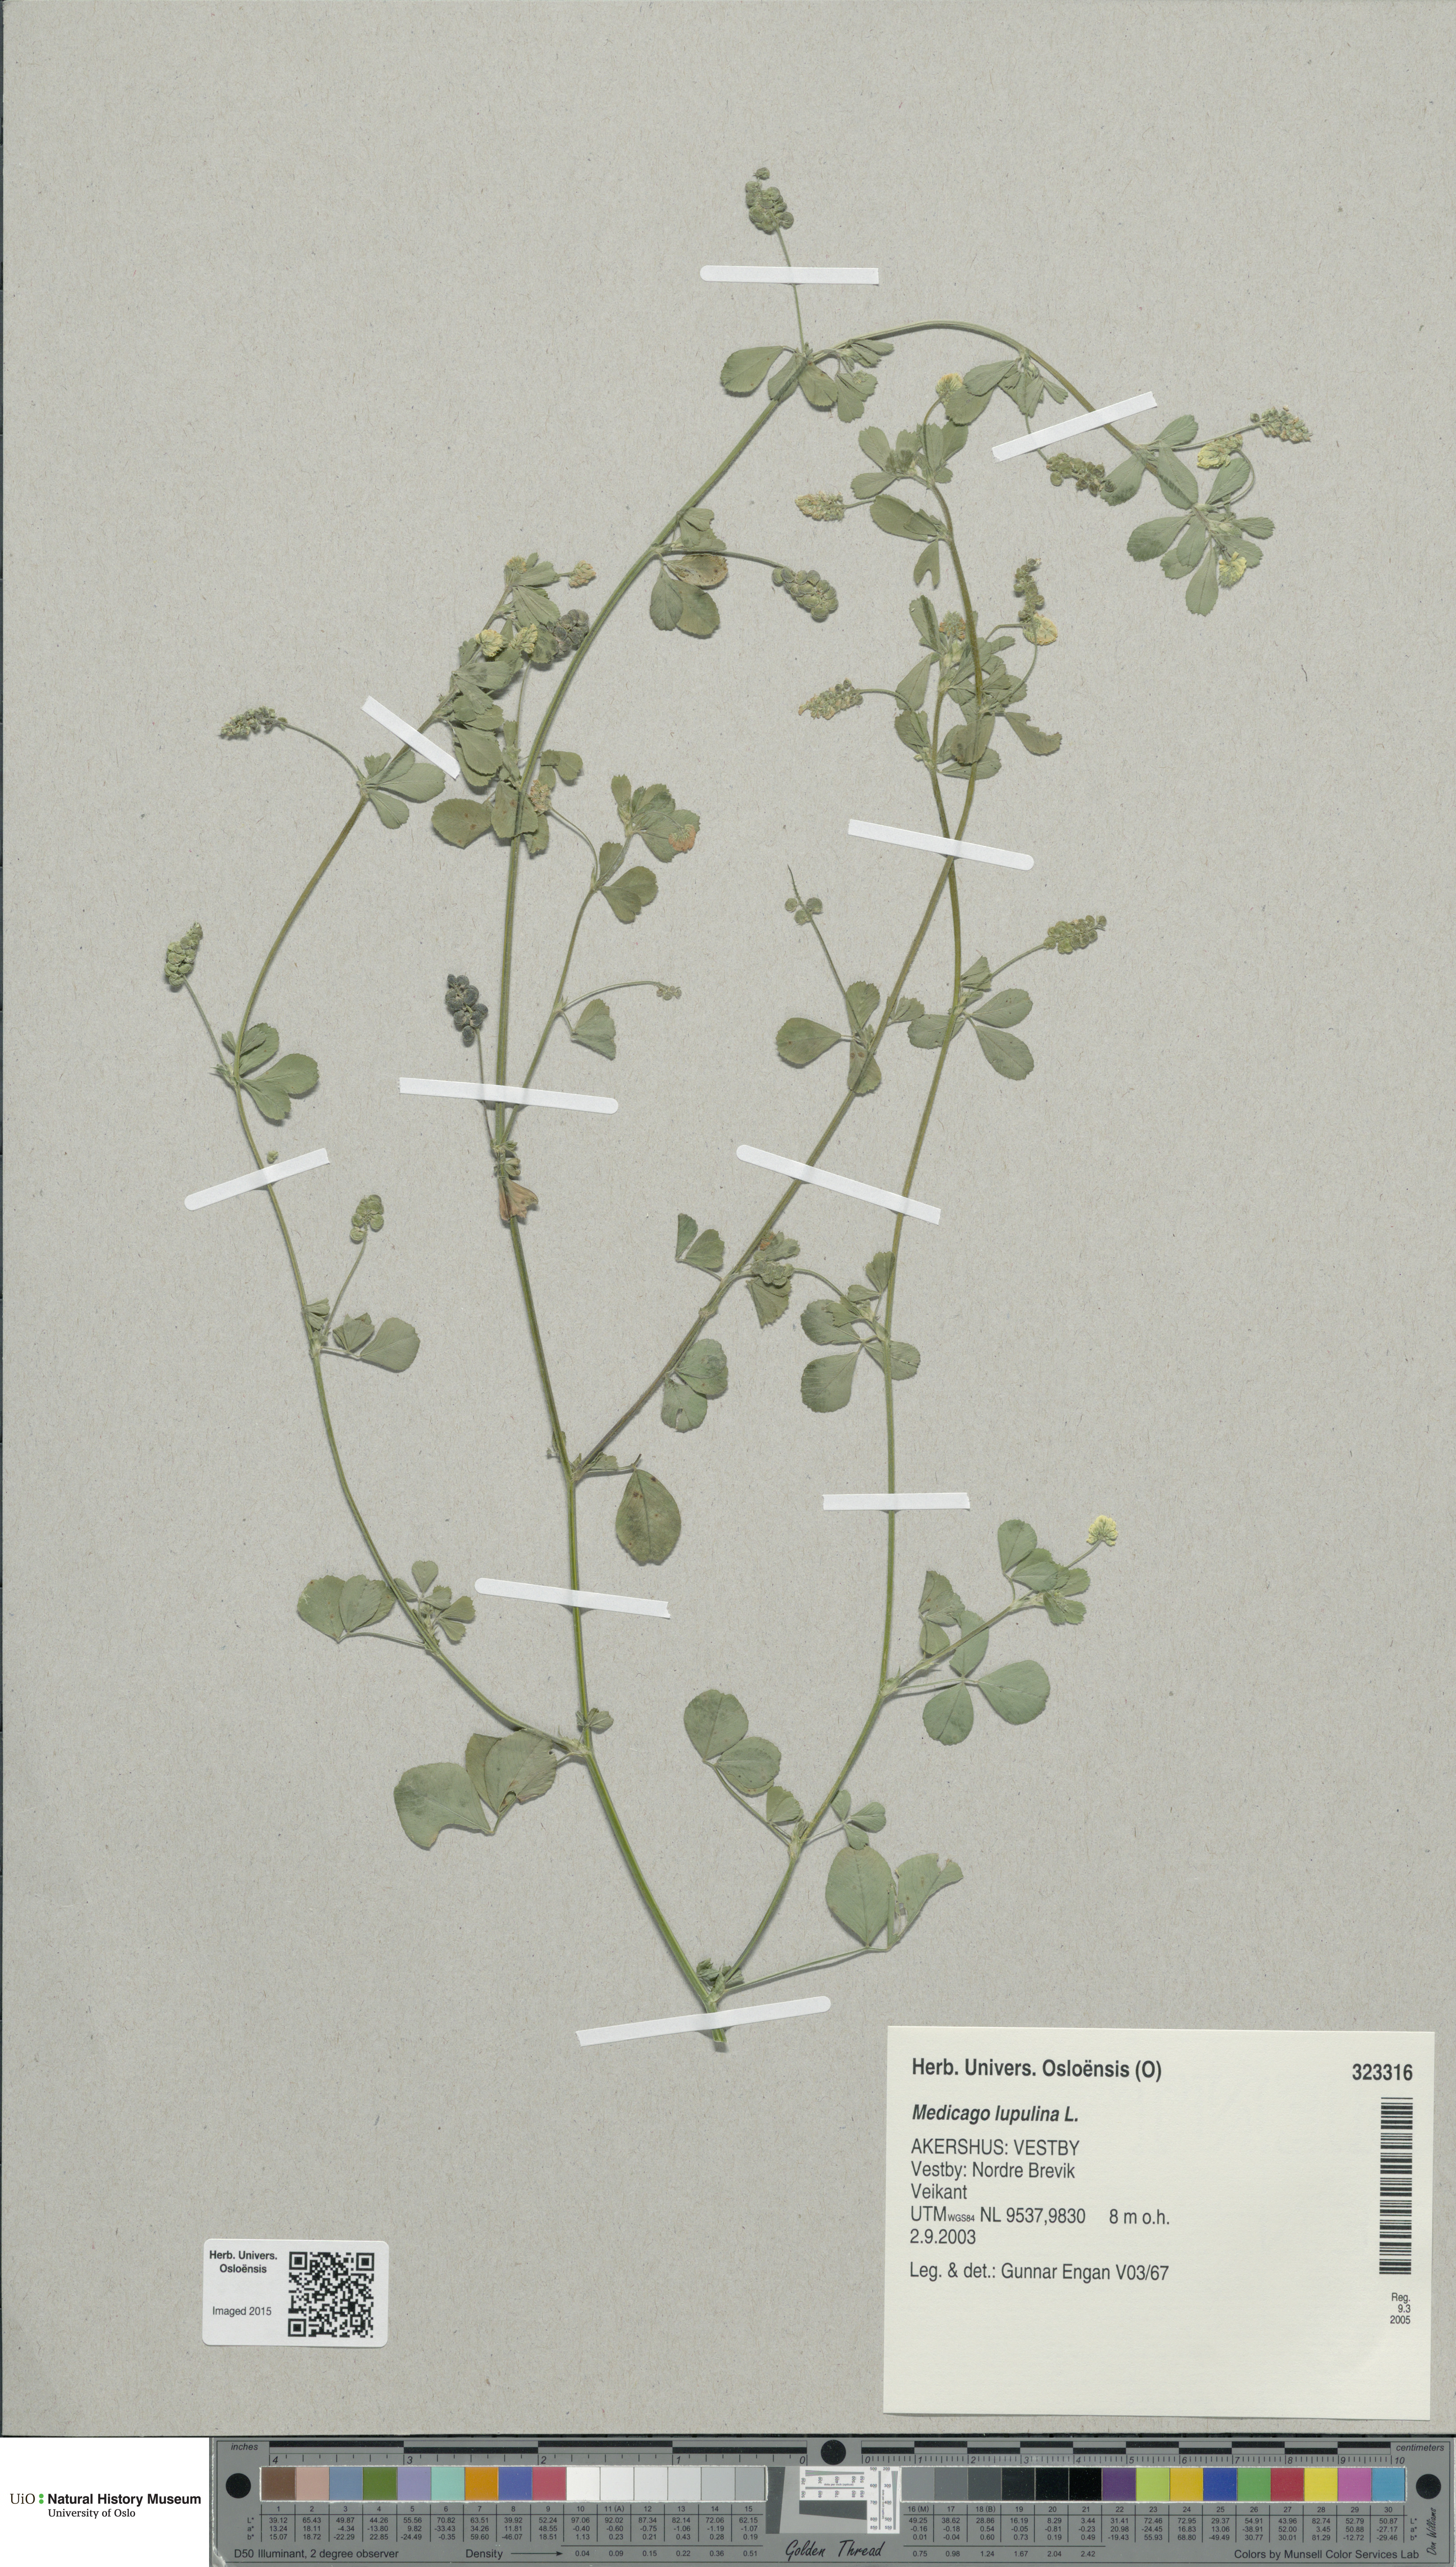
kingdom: Plantae
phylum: Tracheophyta
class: Magnoliopsida
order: Fabales
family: Fabaceae
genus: Medicago
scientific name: Medicago lupulina
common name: Black medick
